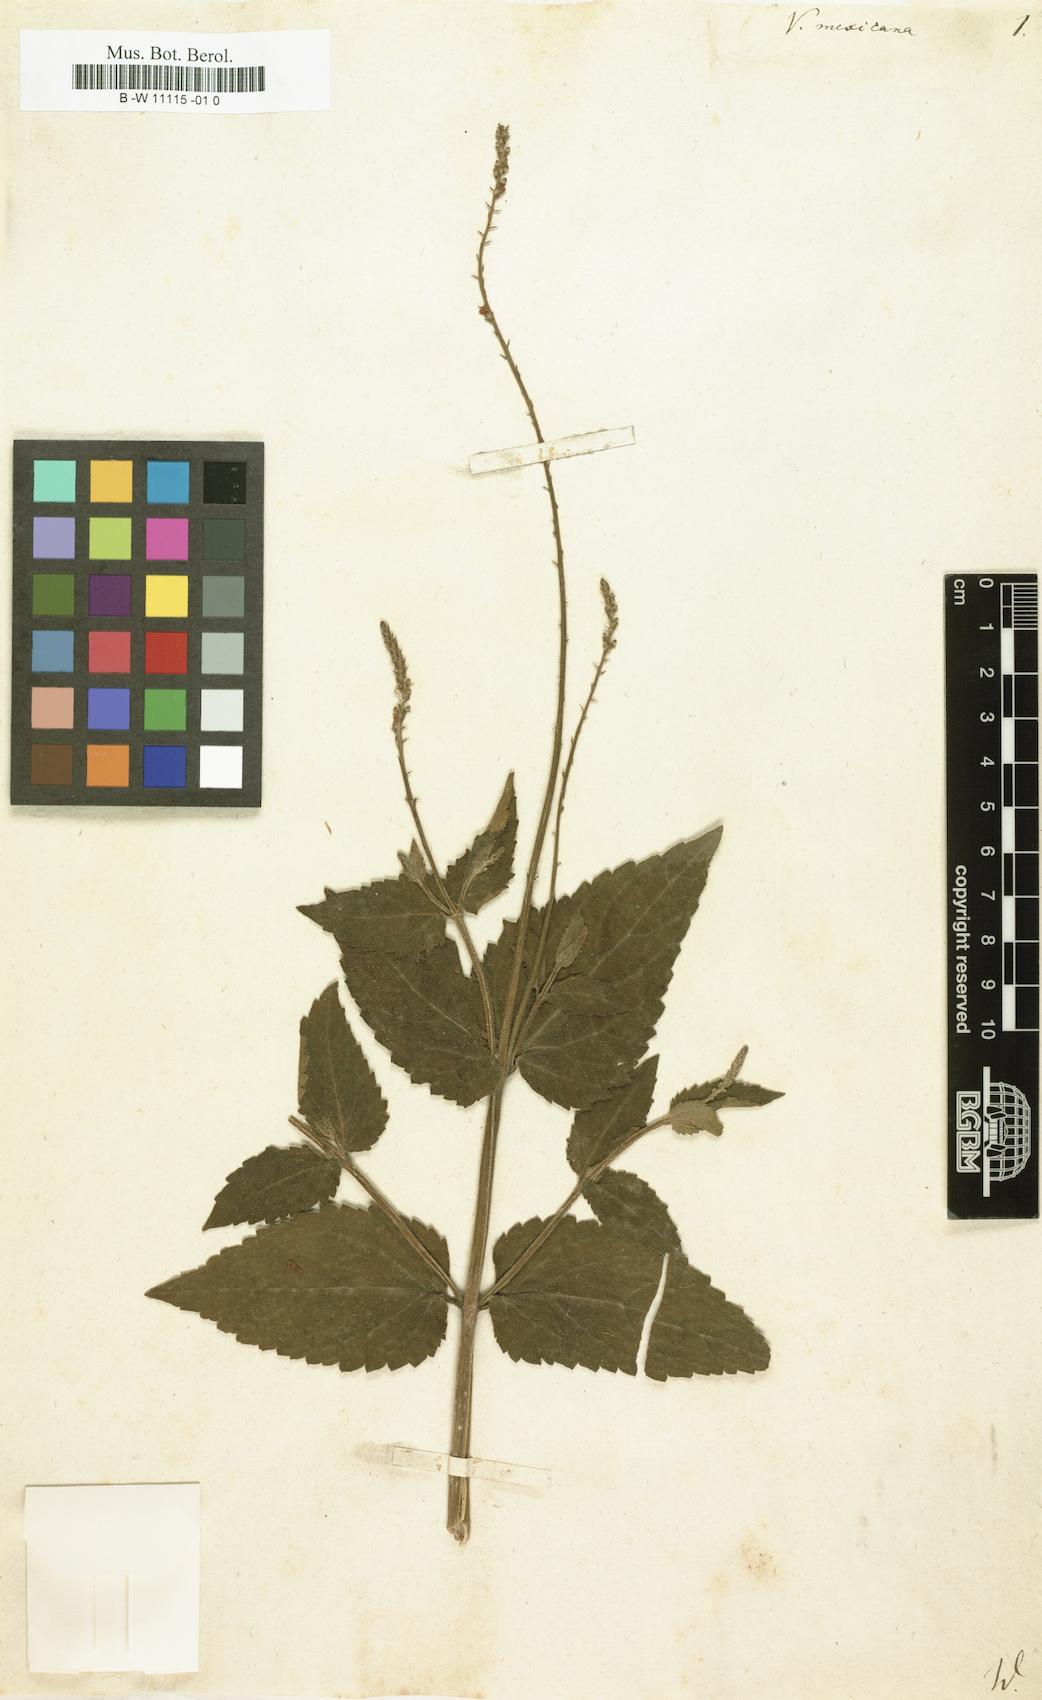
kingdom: Plantae
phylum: Tracheophyta
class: Magnoliopsida
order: Lamiales
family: Verbenaceae
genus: Priva
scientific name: Priva mexicana
